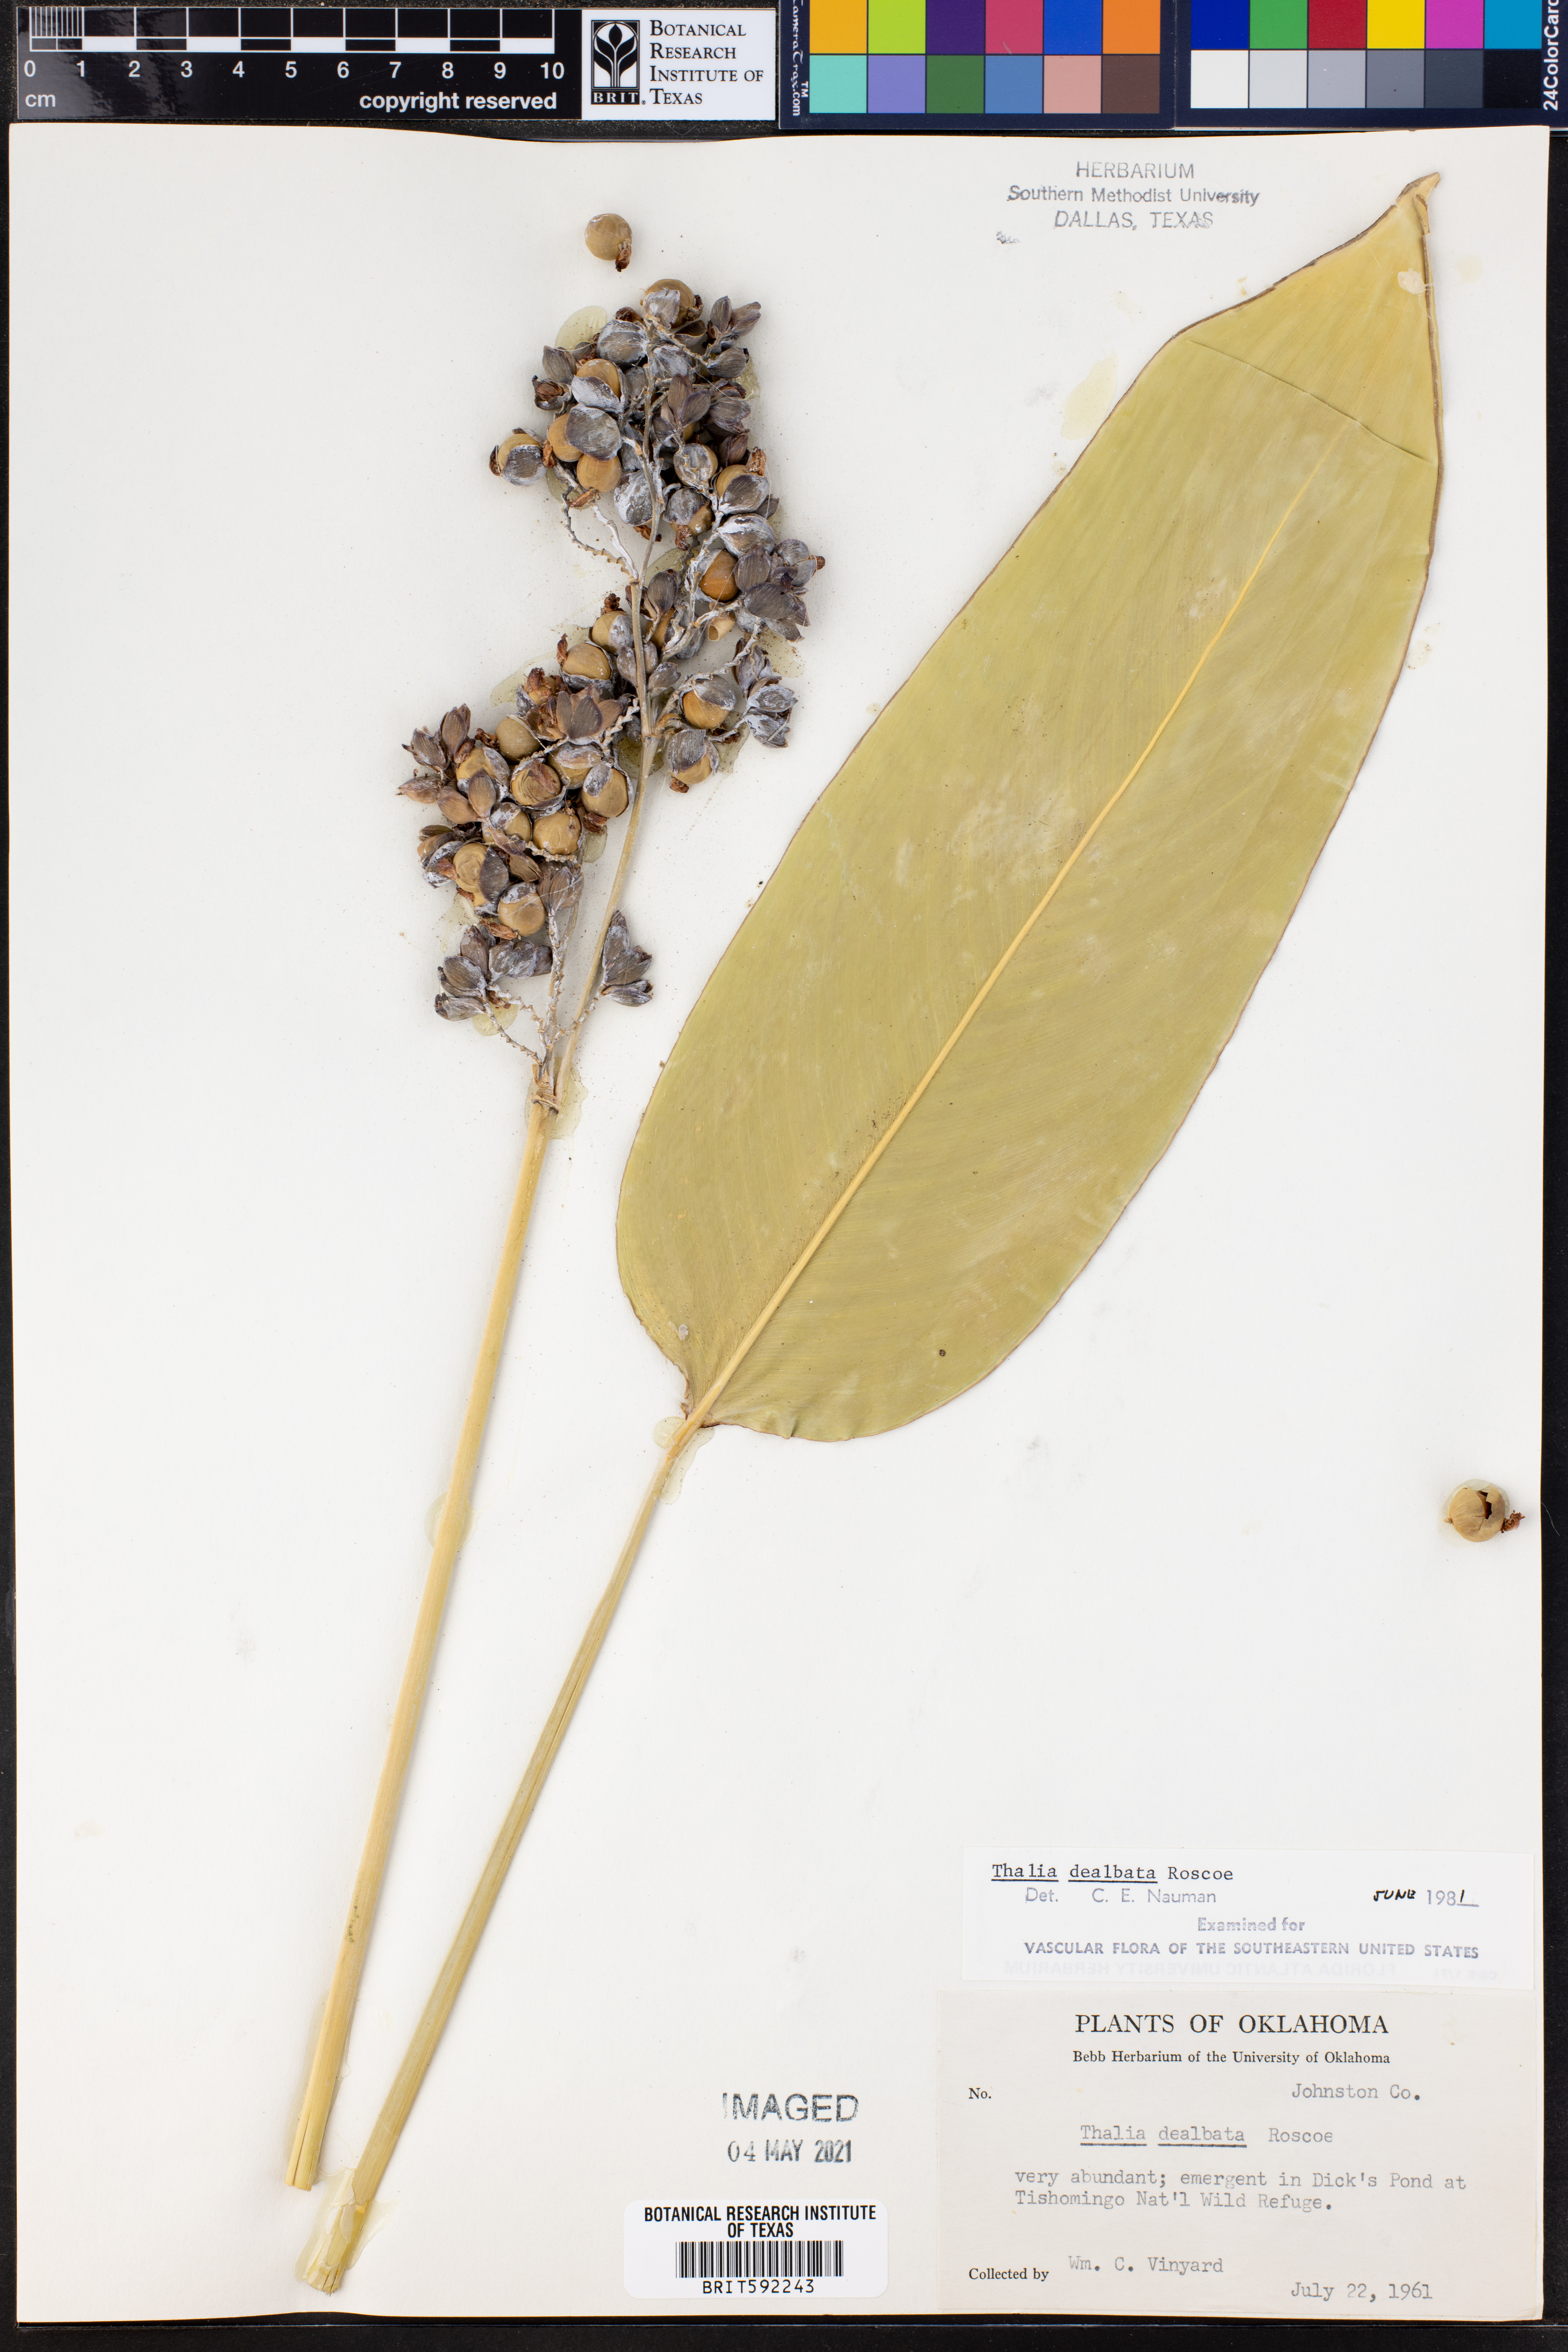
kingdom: Plantae
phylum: Tracheophyta
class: Liliopsida
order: Zingiberales
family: Marantaceae
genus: Thalia
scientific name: Thalia dealbata
